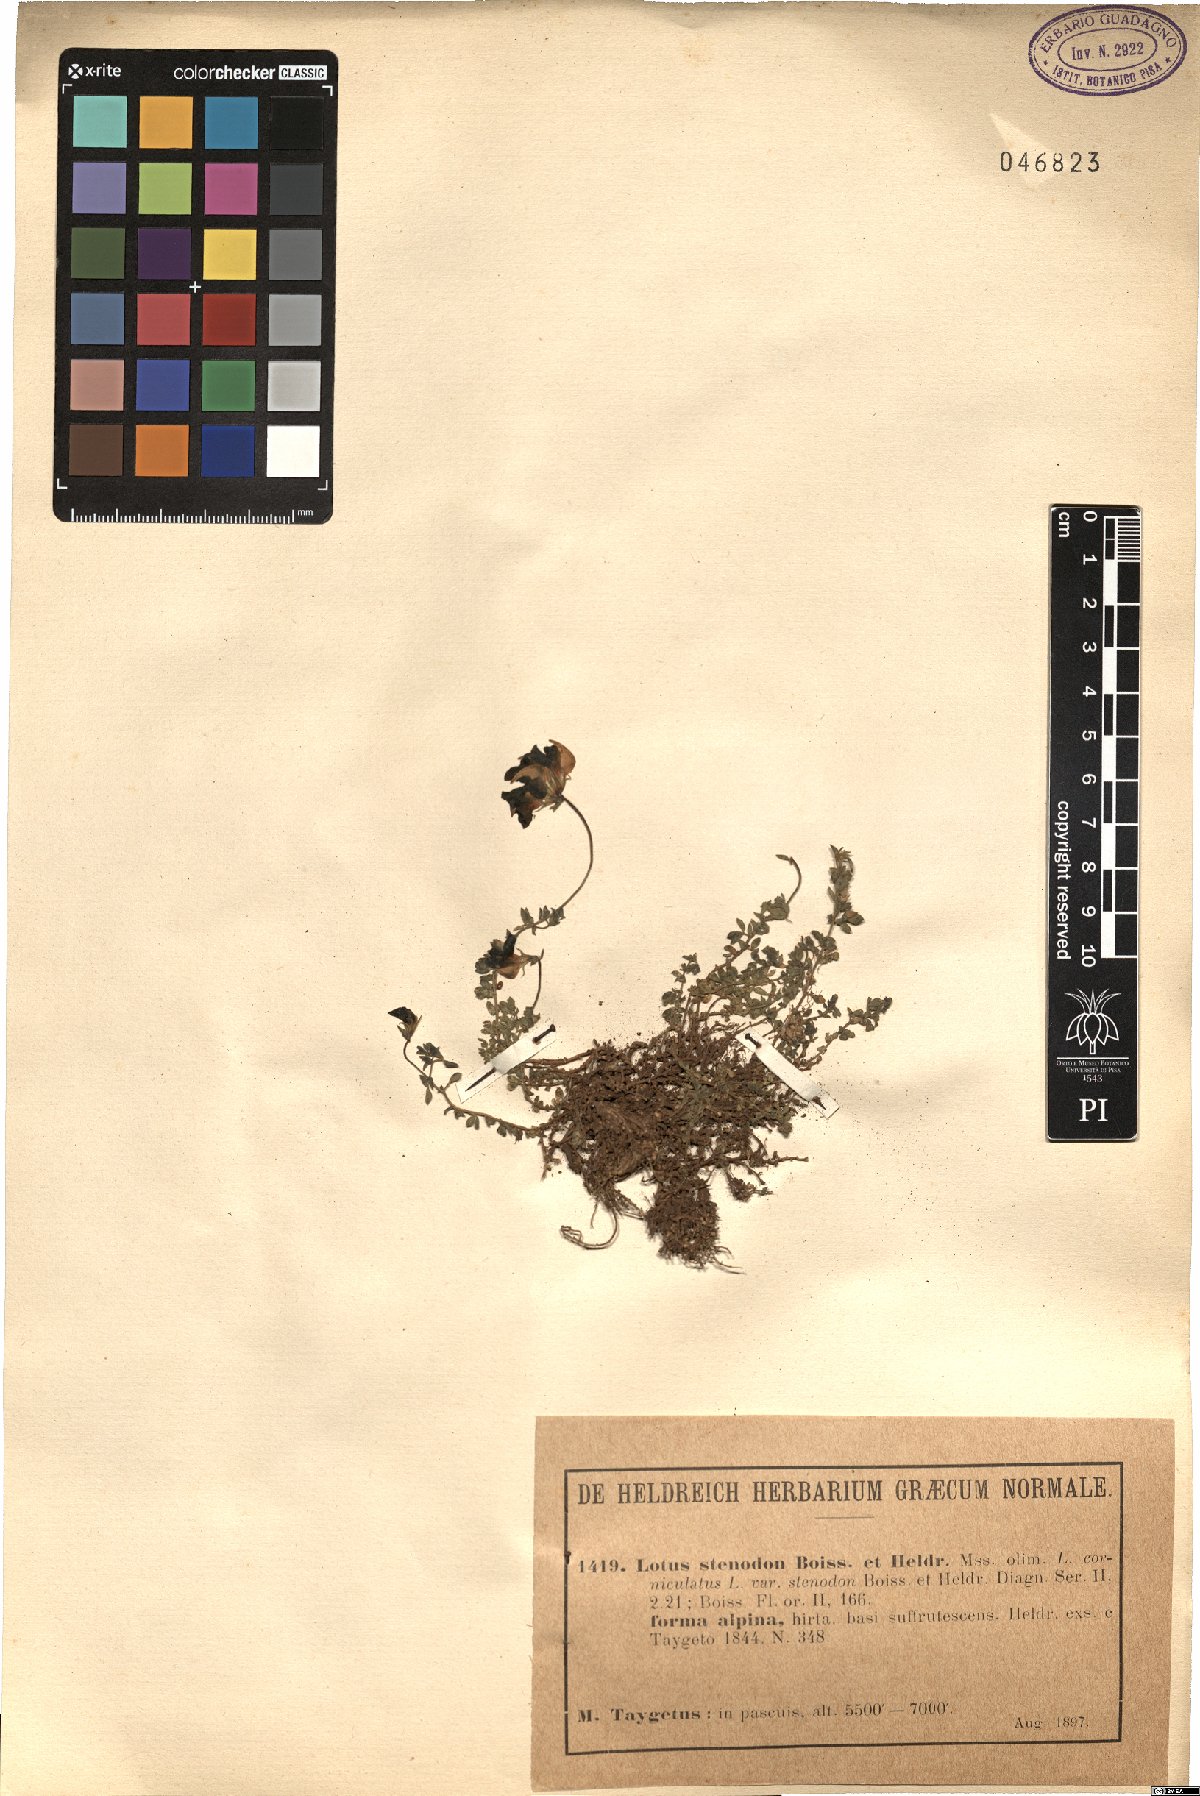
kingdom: Plantae
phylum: Tracheophyta
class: Magnoliopsida
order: Fabales
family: Fabaceae
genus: Lotus
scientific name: Lotus stenodon
